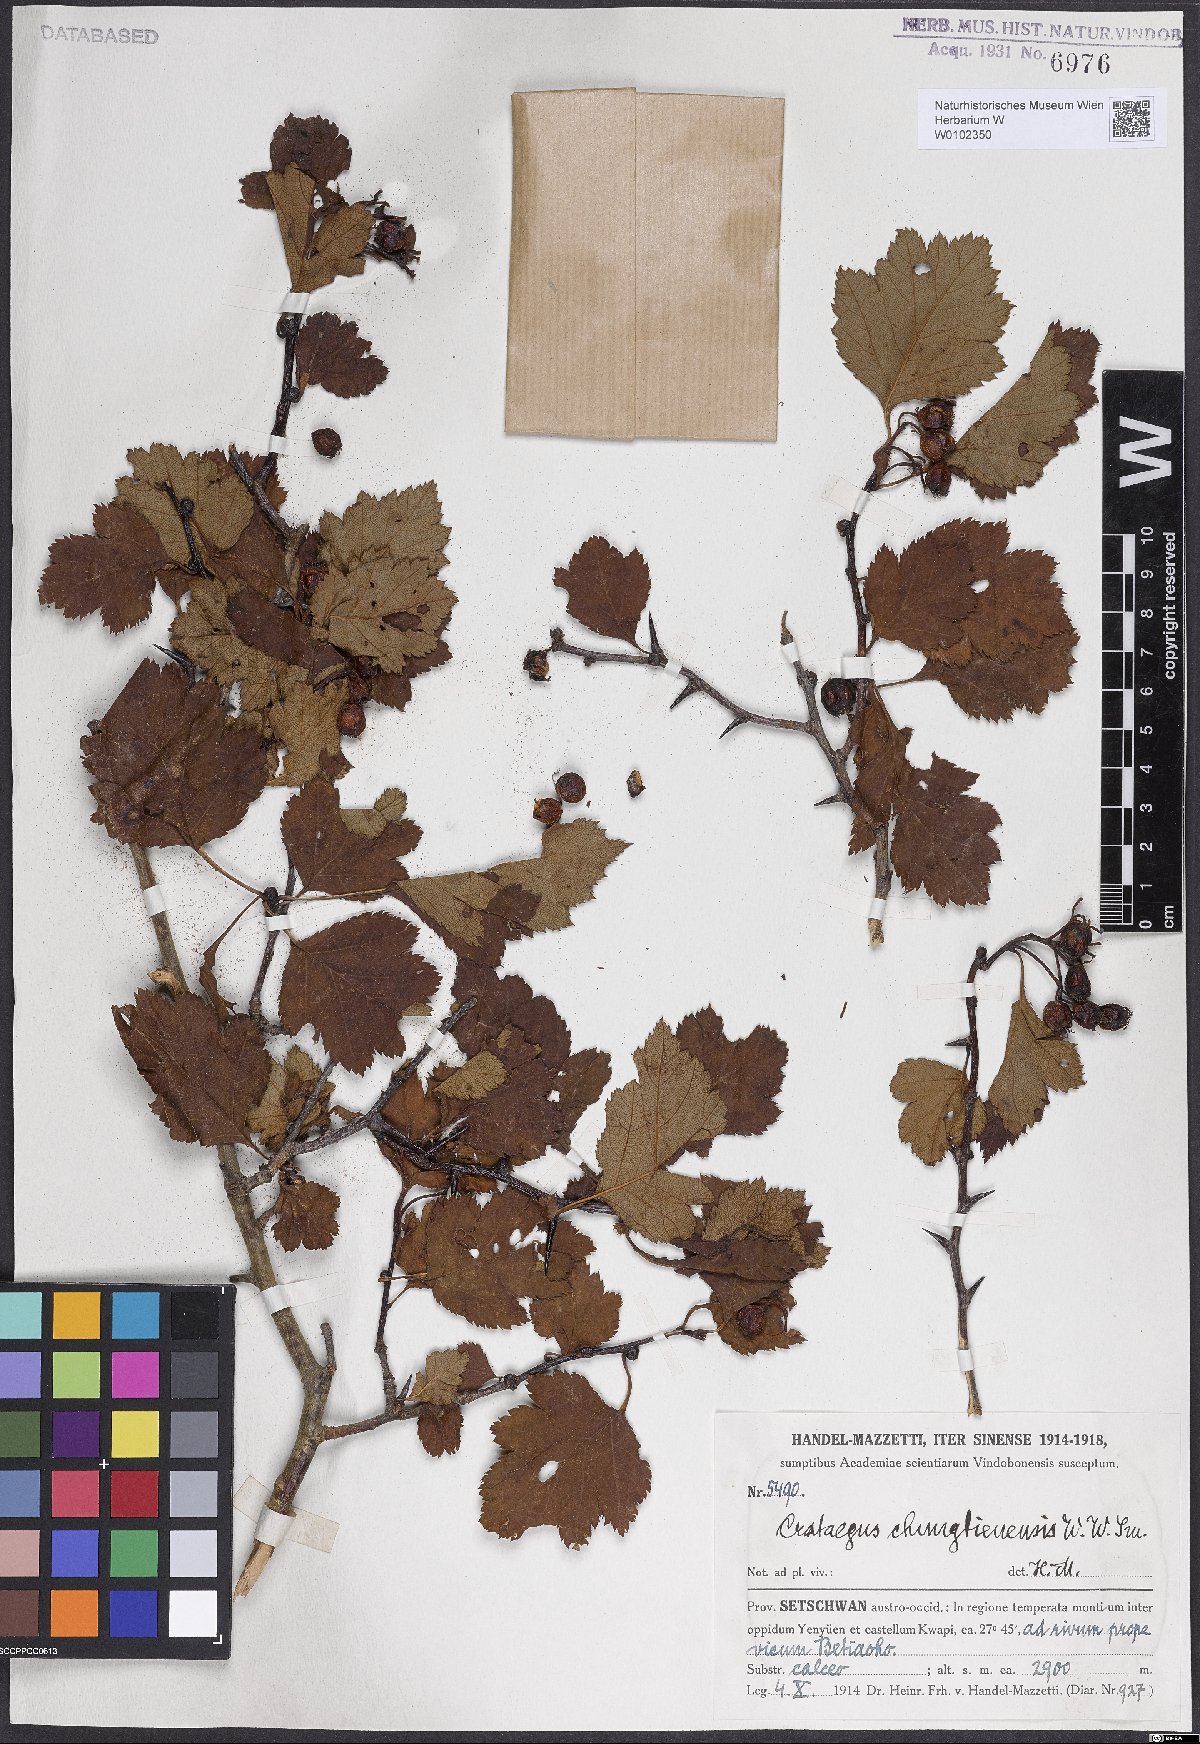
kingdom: Plantae
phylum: Tracheophyta
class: Magnoliopsida
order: Rosales
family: Rosaceae
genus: Crataegus
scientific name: Crataegus chungtienensis
